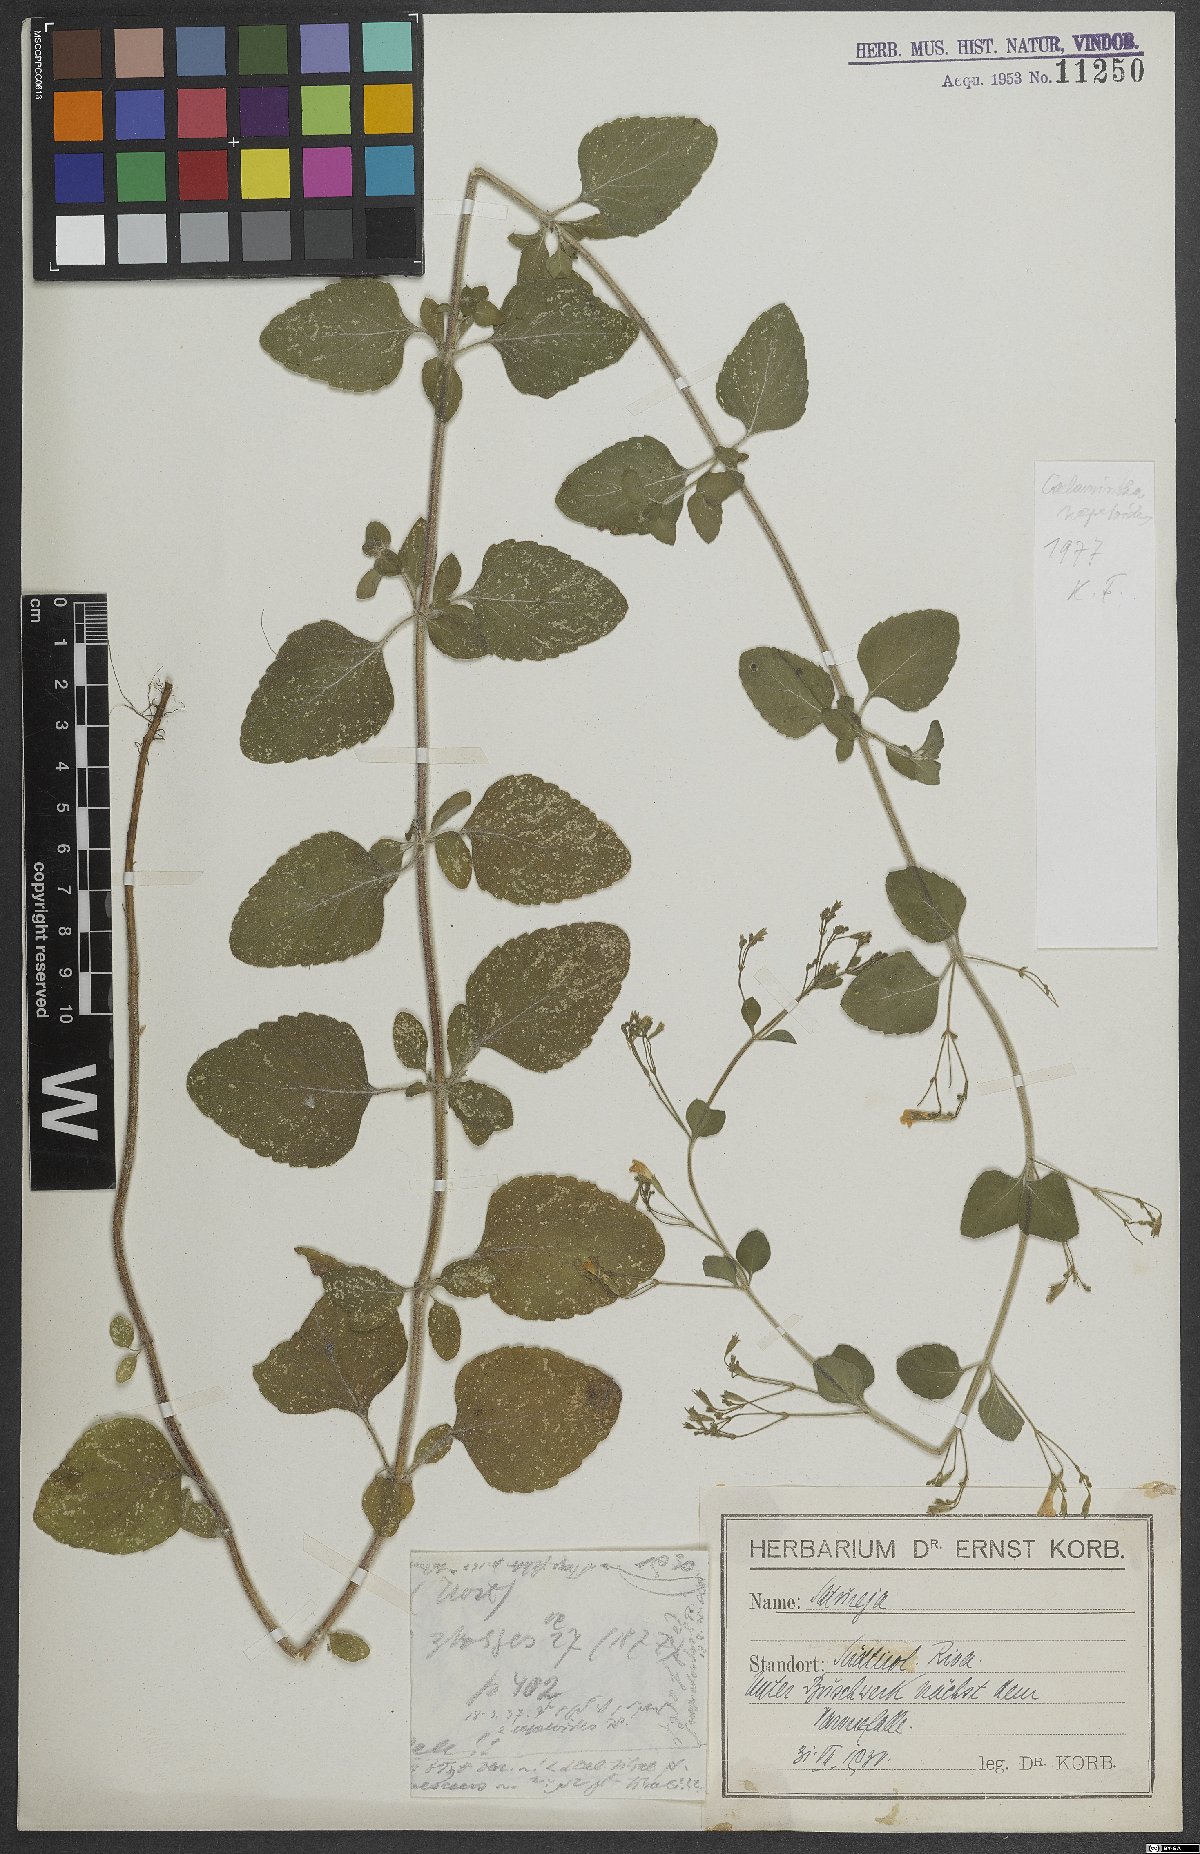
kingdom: Plantae
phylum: Tracheophyta
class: Magnoliopsida
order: Lamiales
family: Lamiaceae
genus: Clinopodium
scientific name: Clinopodium nepeta
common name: Lesser calamint
